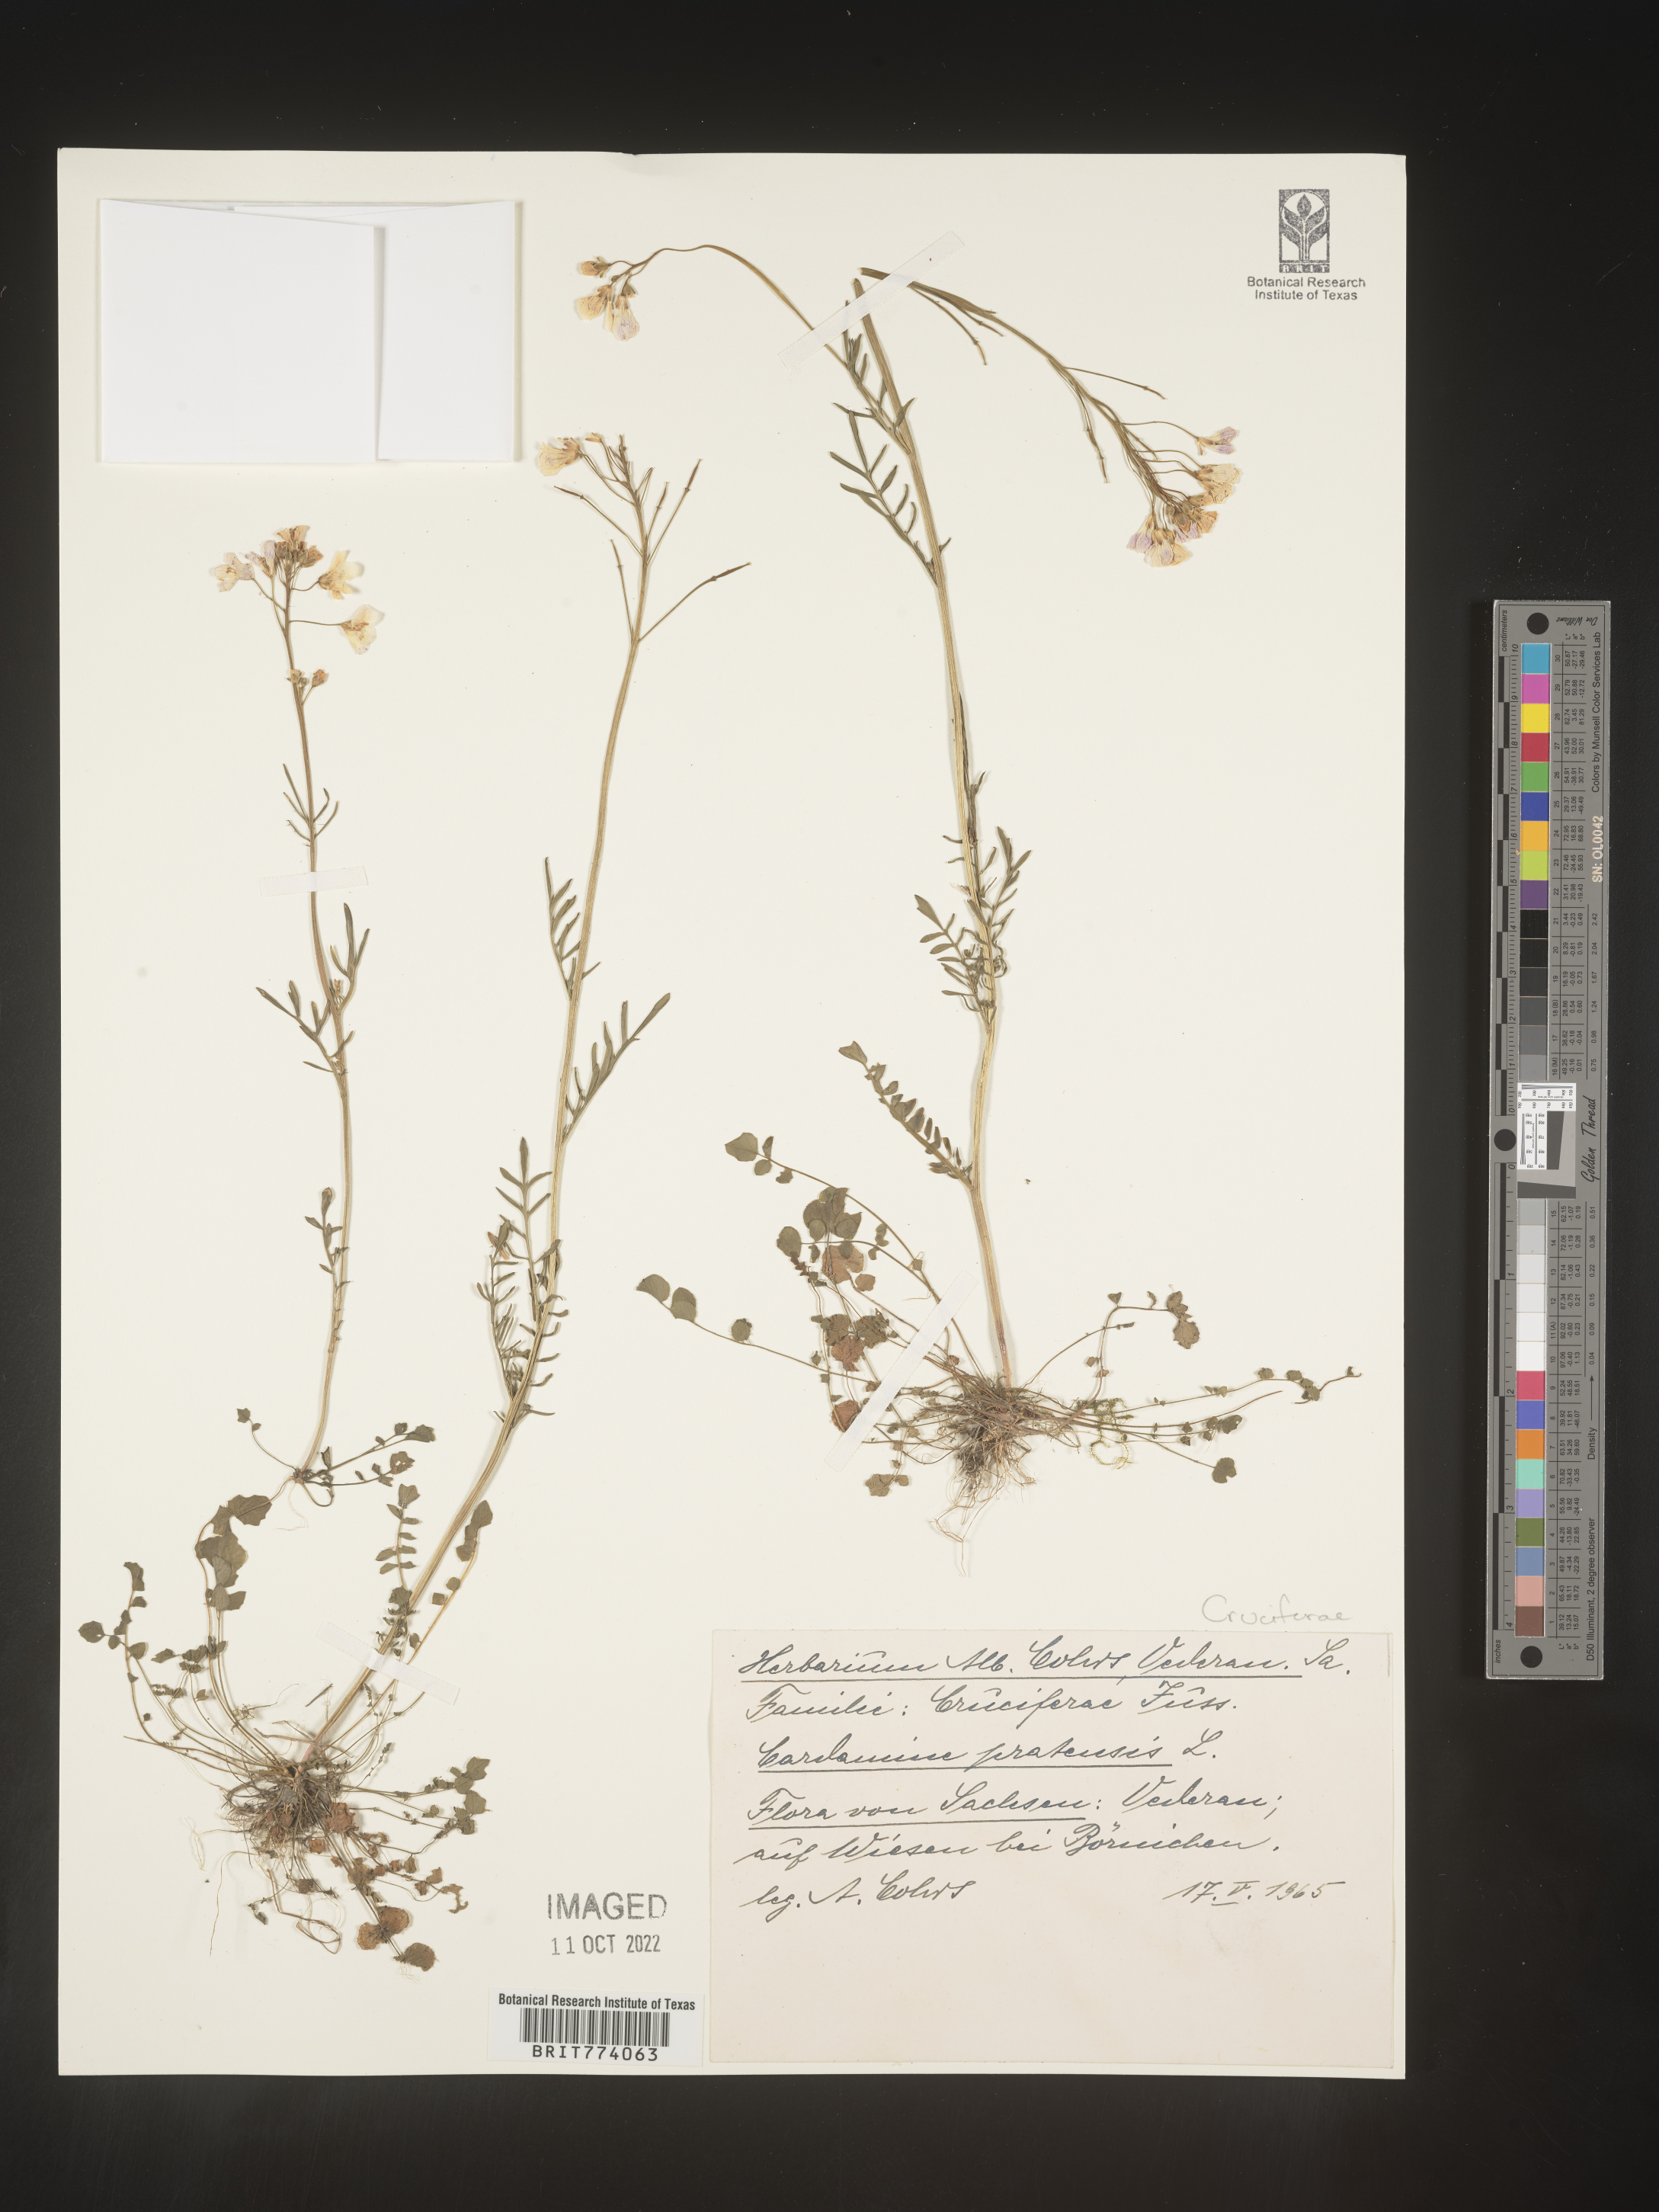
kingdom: Plantae
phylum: Tracheophyta
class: Magnoliopsida
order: Brassicales
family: Brassicaceae
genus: Cardamine
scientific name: Cardamine pratensis
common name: Cuckoo flower
